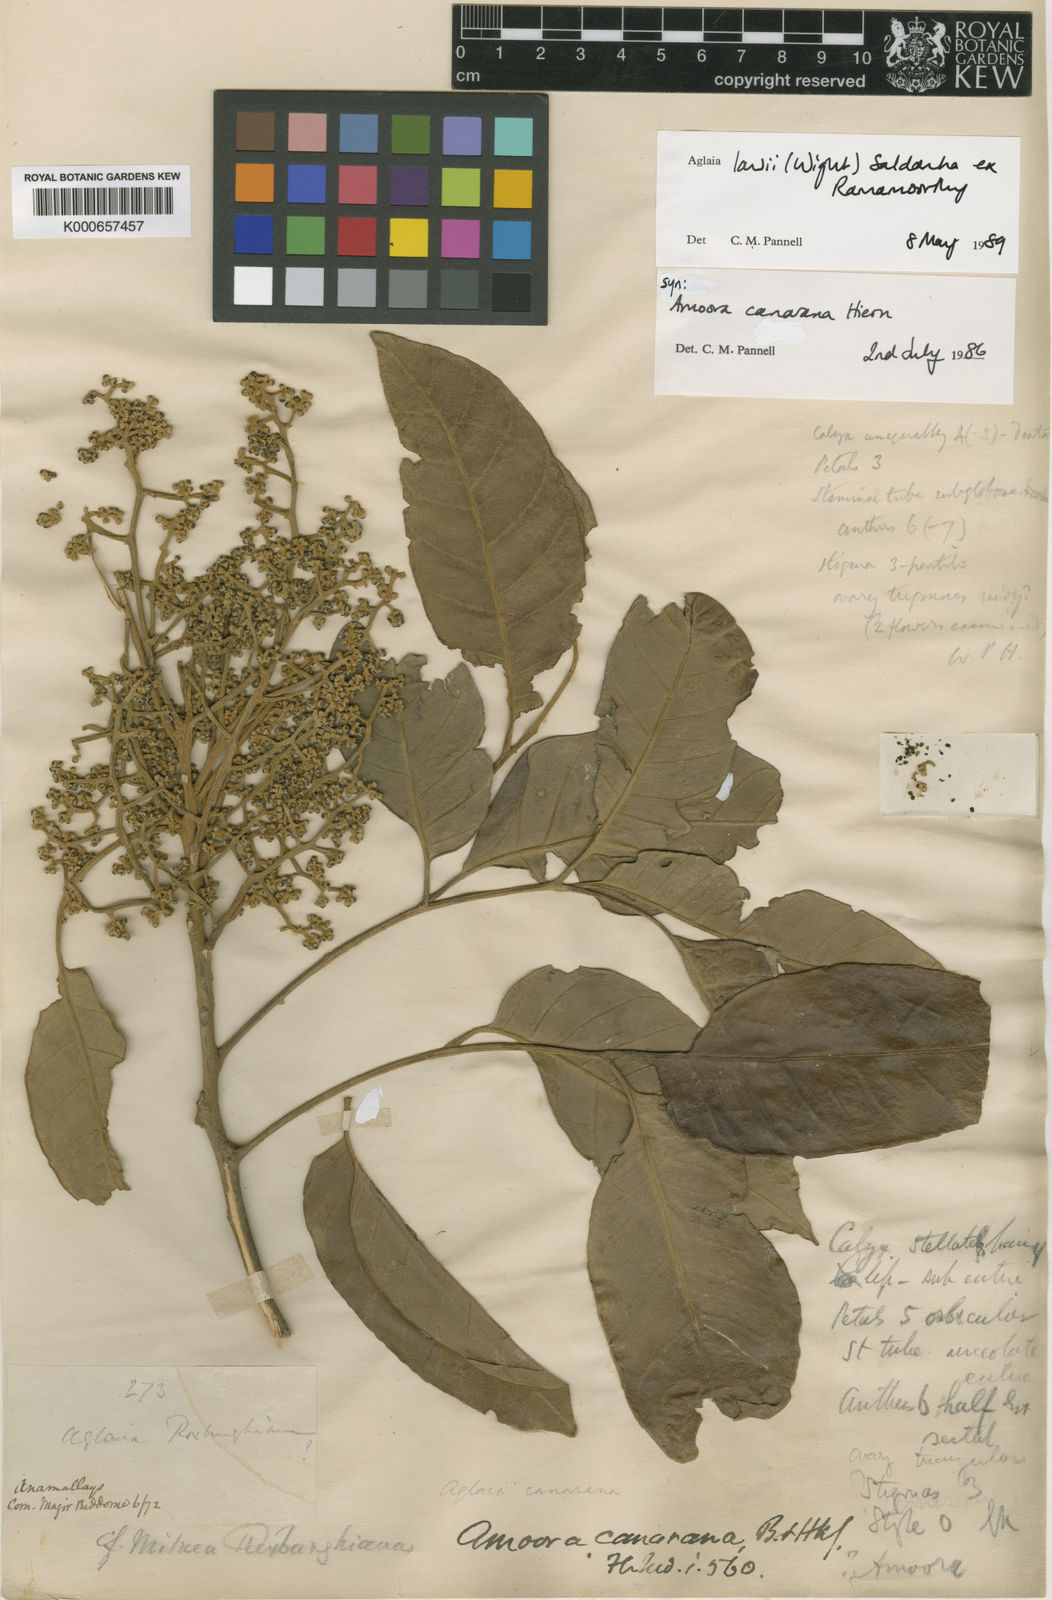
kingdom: Plantae
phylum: Tracheophyta
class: Magnoliopsida
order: Sapindales
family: Meliaceae
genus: Aglaia
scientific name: Aglaia
